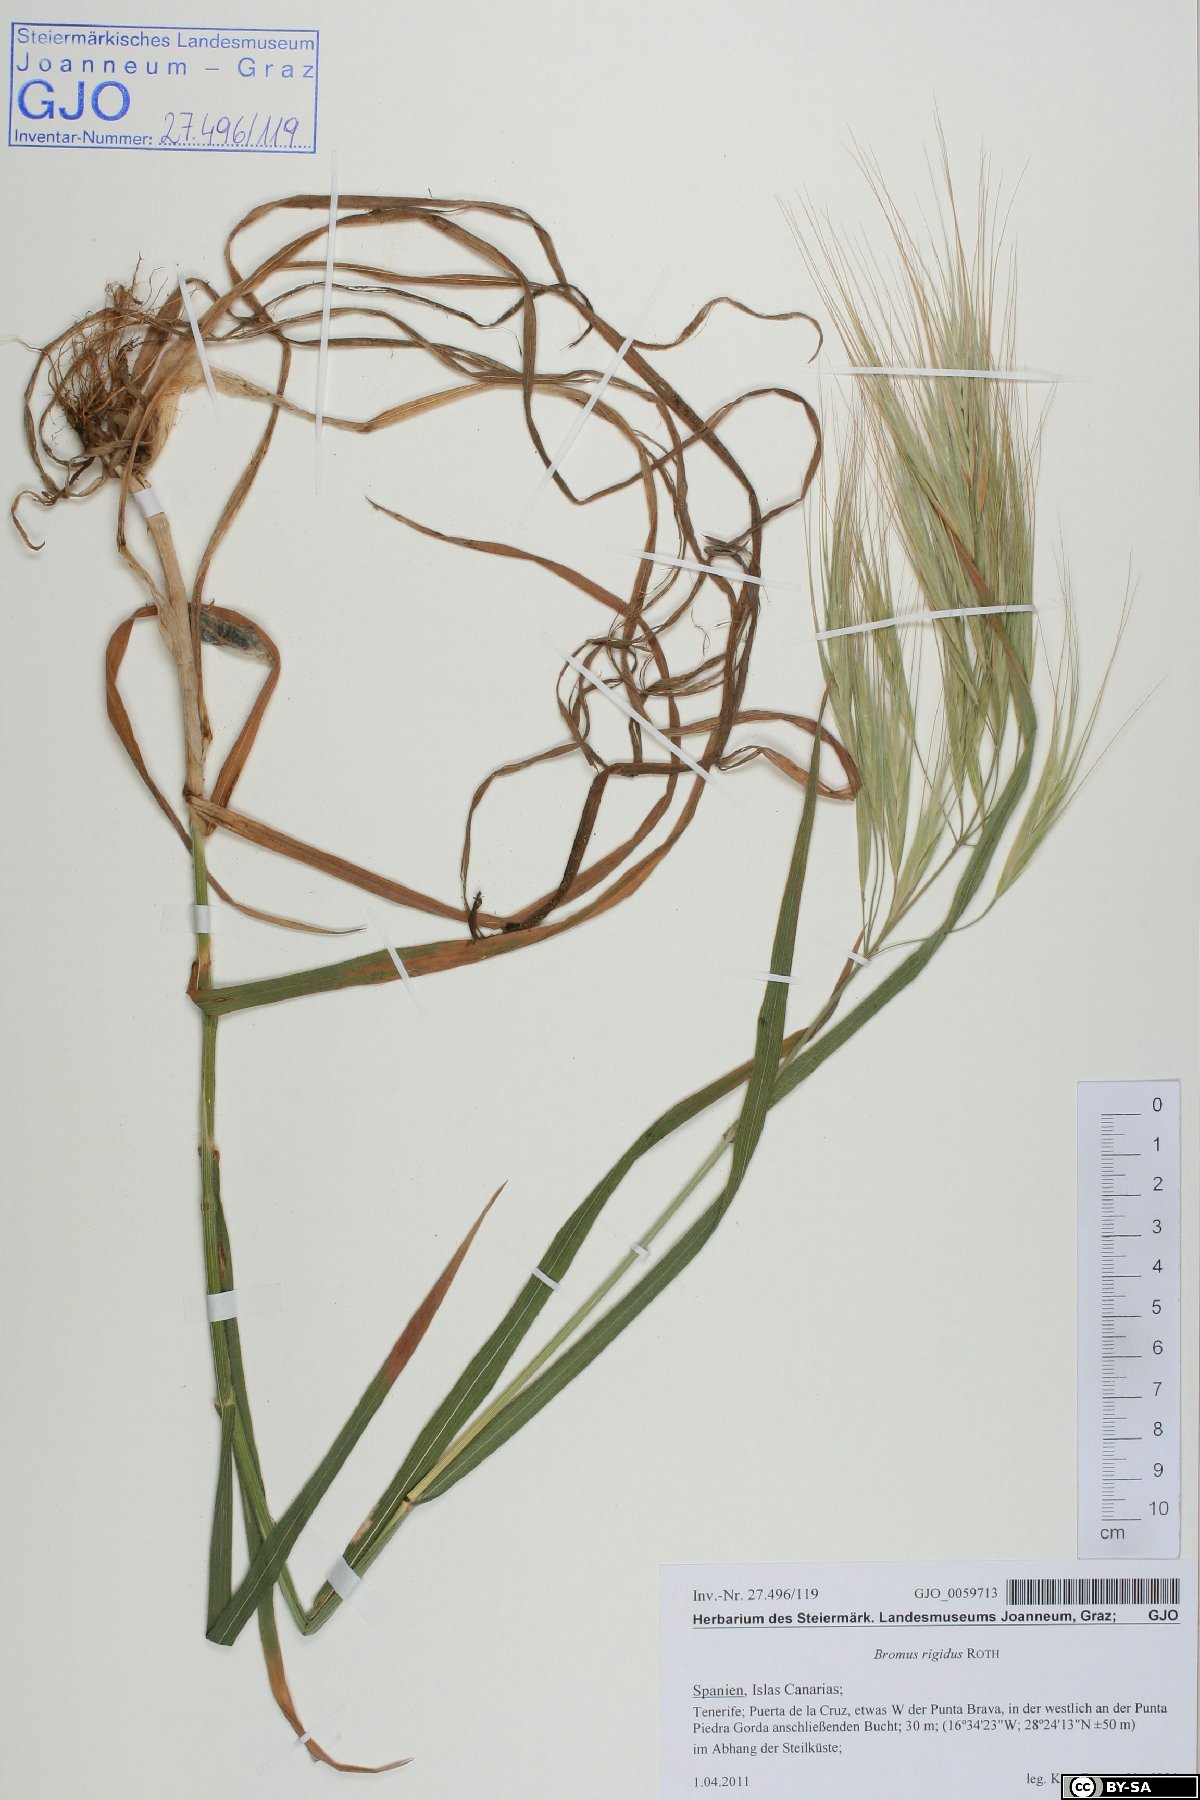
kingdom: Plantae
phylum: Tracheophyta
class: Liliopsida
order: Poales
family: Poaceae
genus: Bromus
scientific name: Bromus rigidus
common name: Ripgut brome
